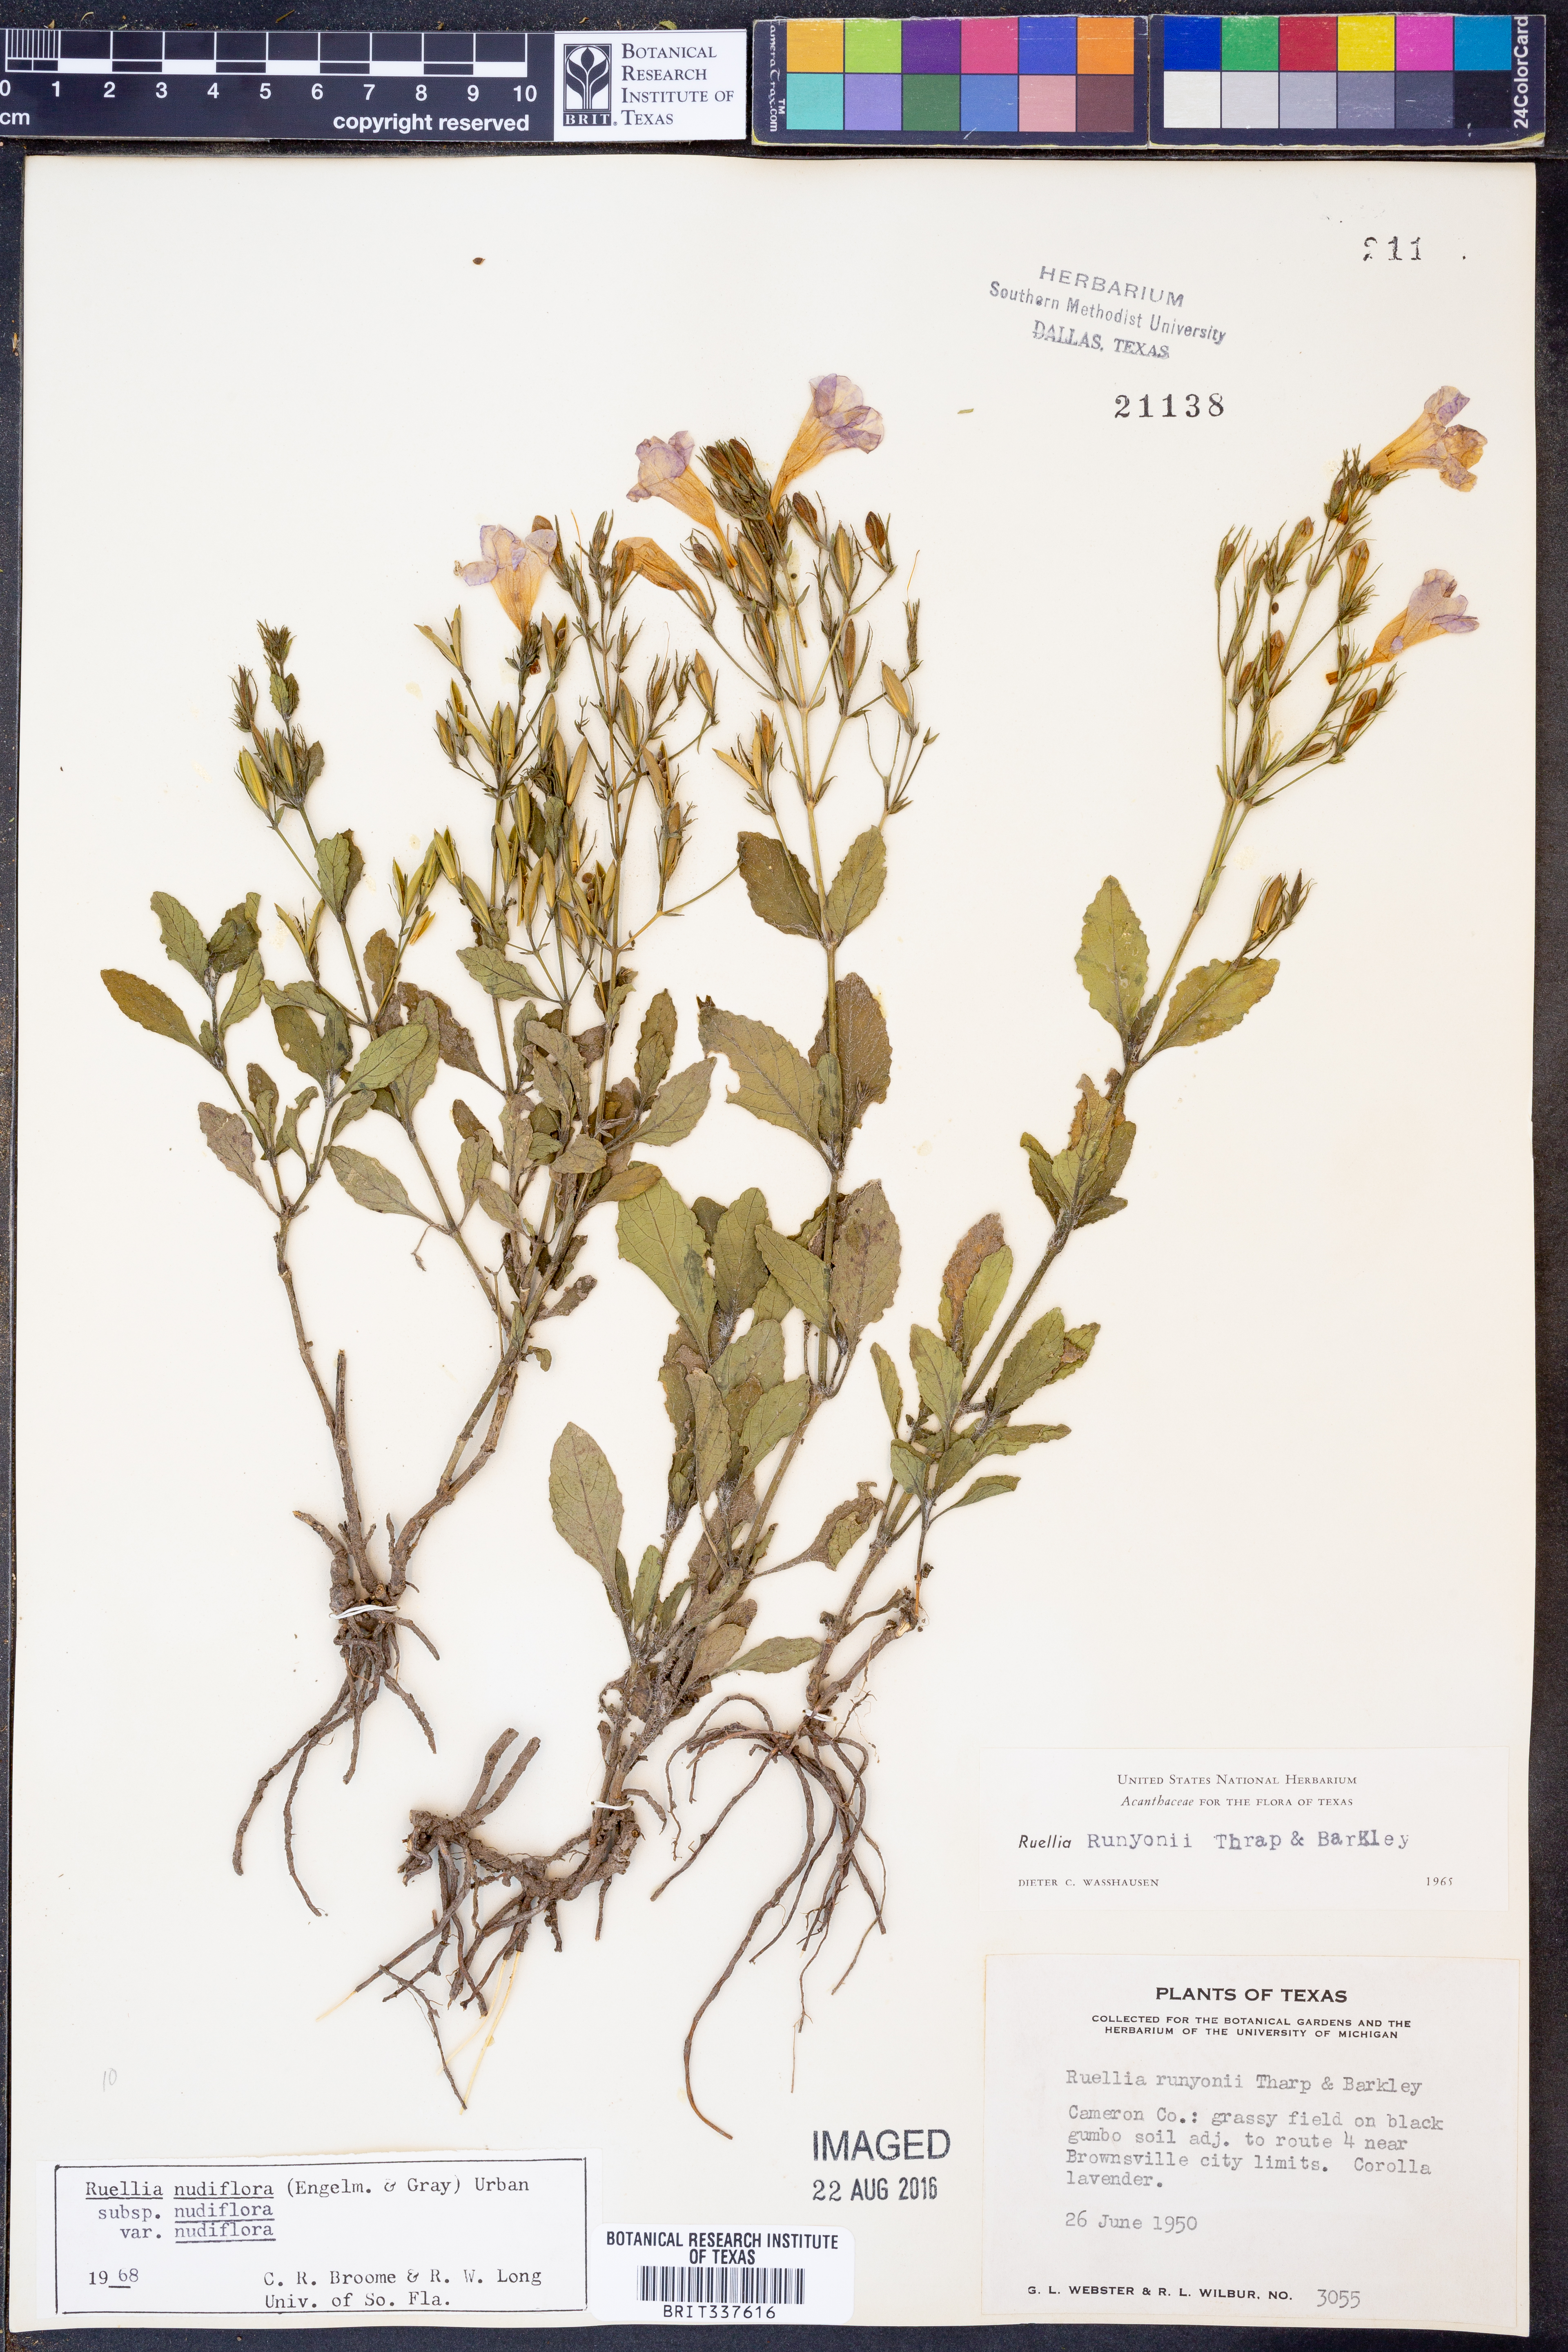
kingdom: Plantae
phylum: Tracheophyta
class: Magnoliopsida
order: Lamiales
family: Acanthaceae
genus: Ruellia
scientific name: Ruellia ciliatiflora
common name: Hairyflower wild petunia
